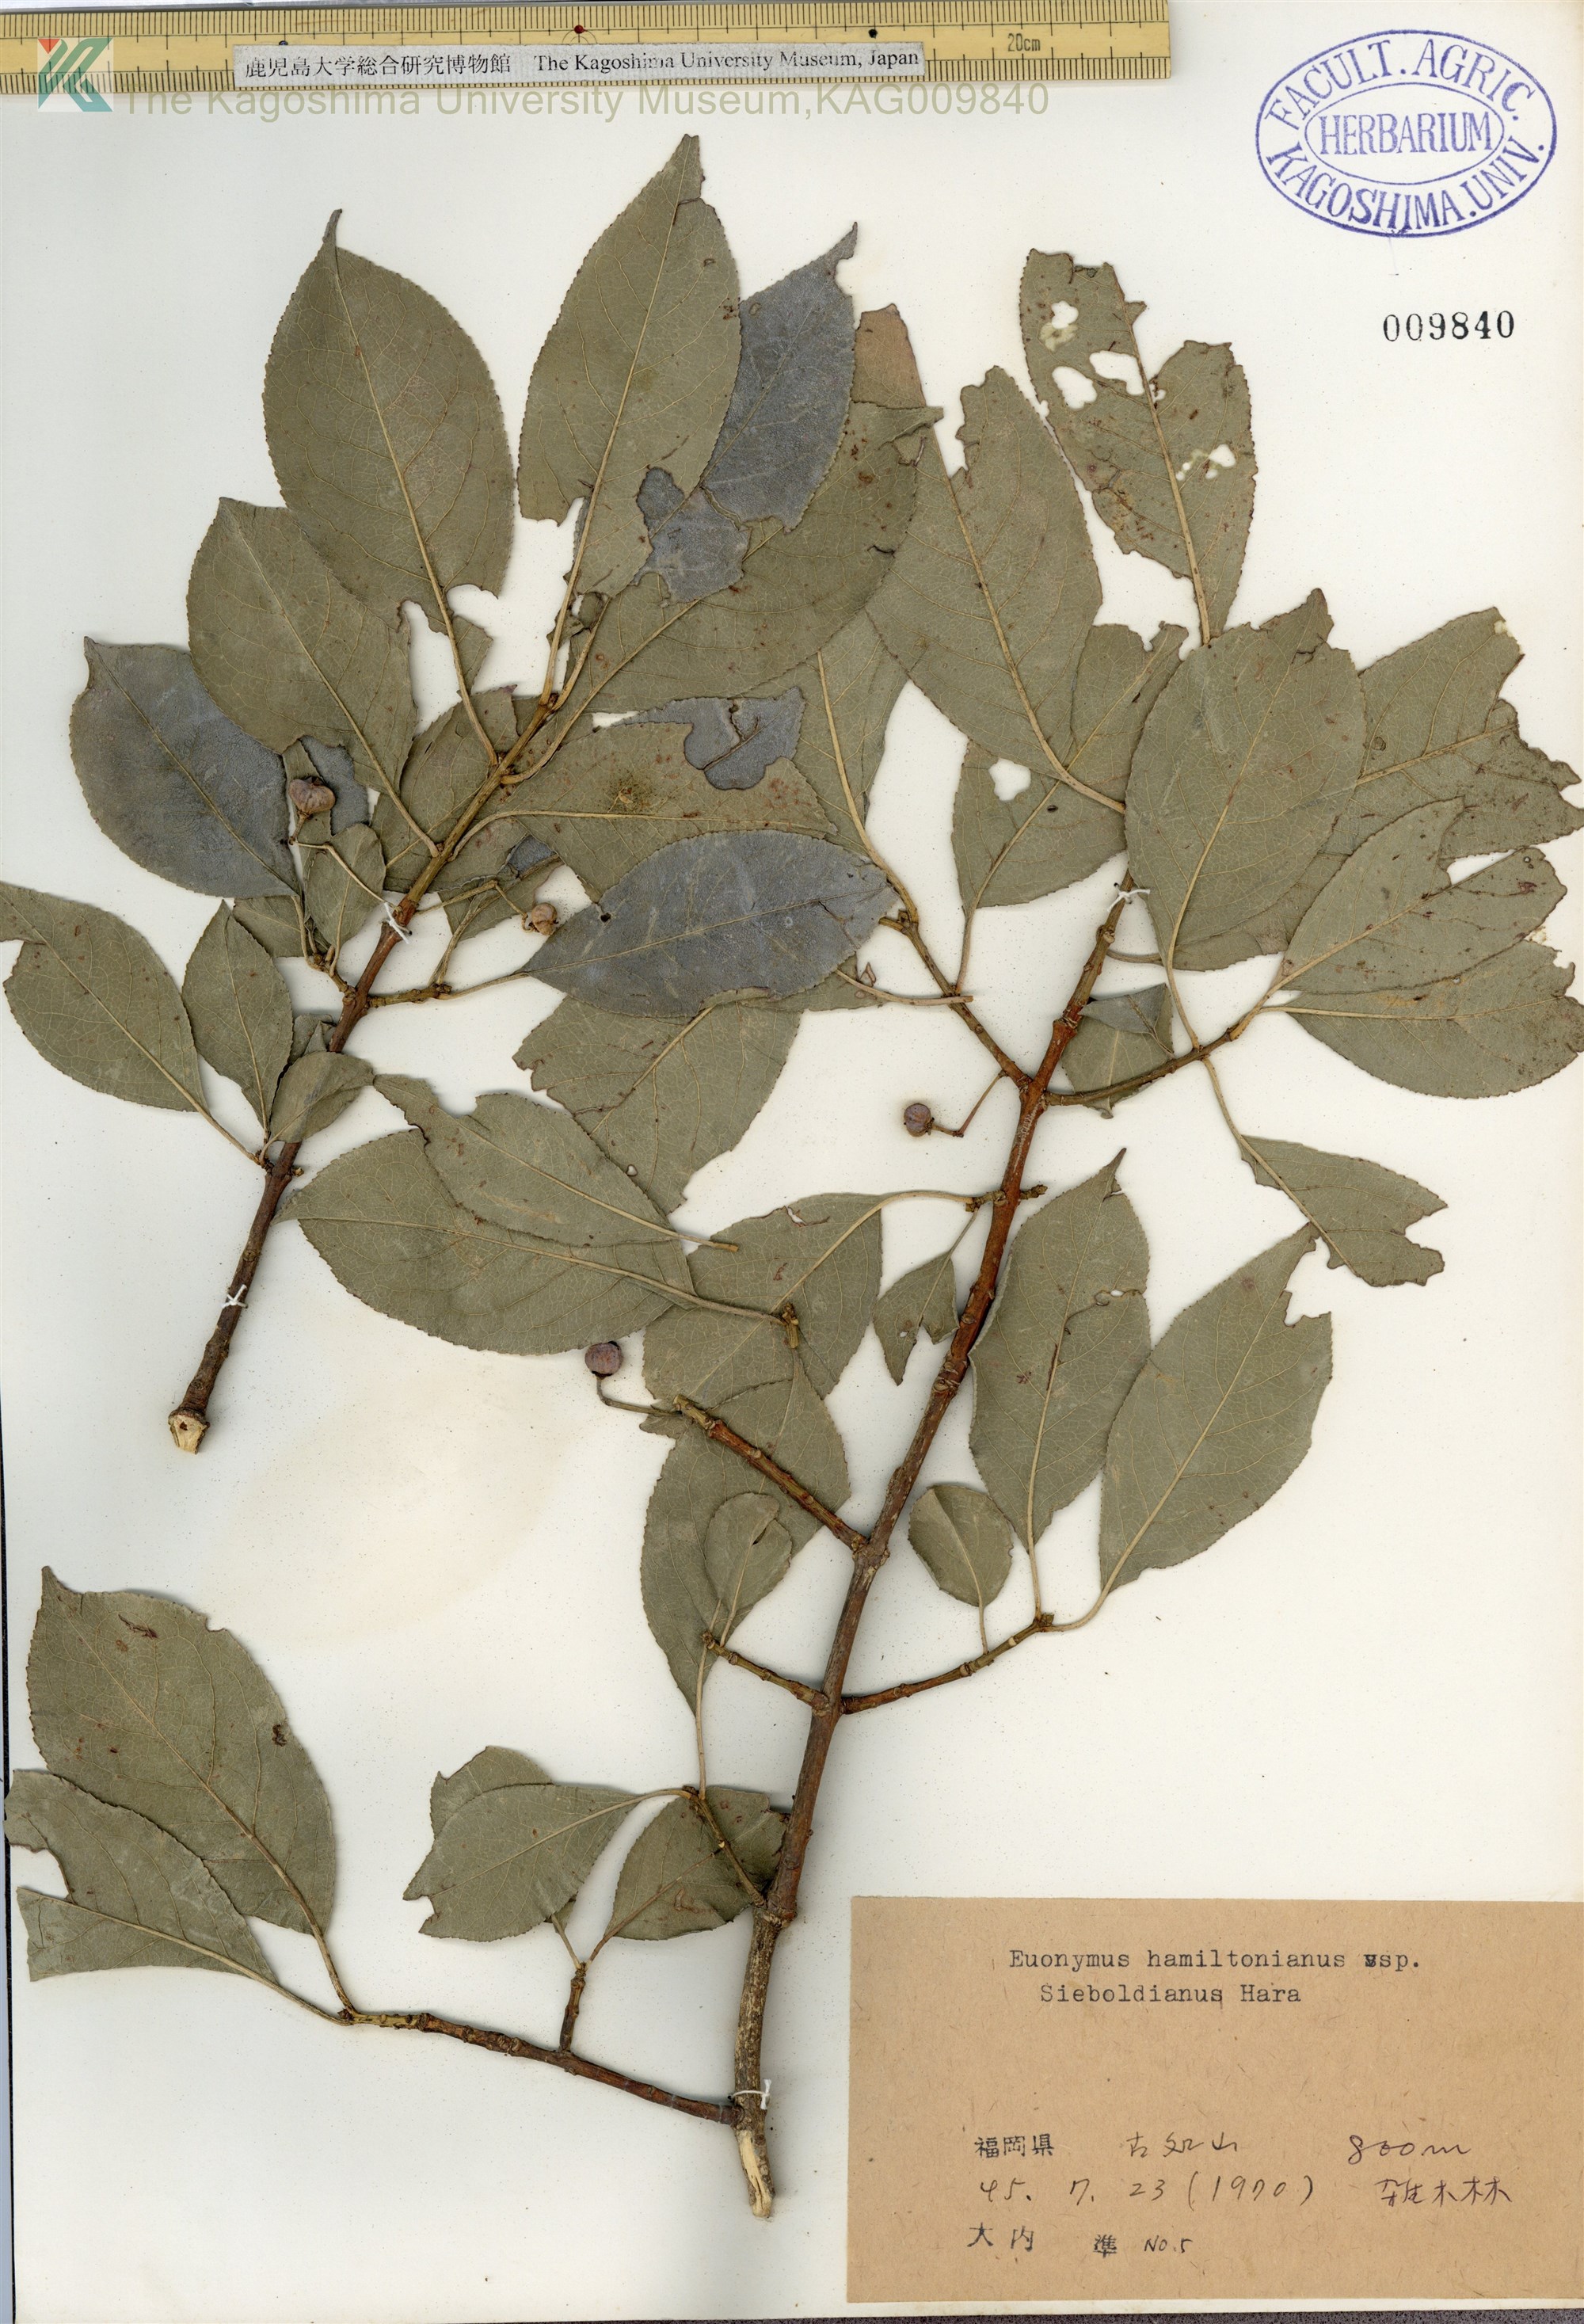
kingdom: Plantae
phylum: Tracheophyta
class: Magnoliopsida
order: Celastrales
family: Celastraceae
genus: Euonymus
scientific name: Euonymus hamiltonianus
